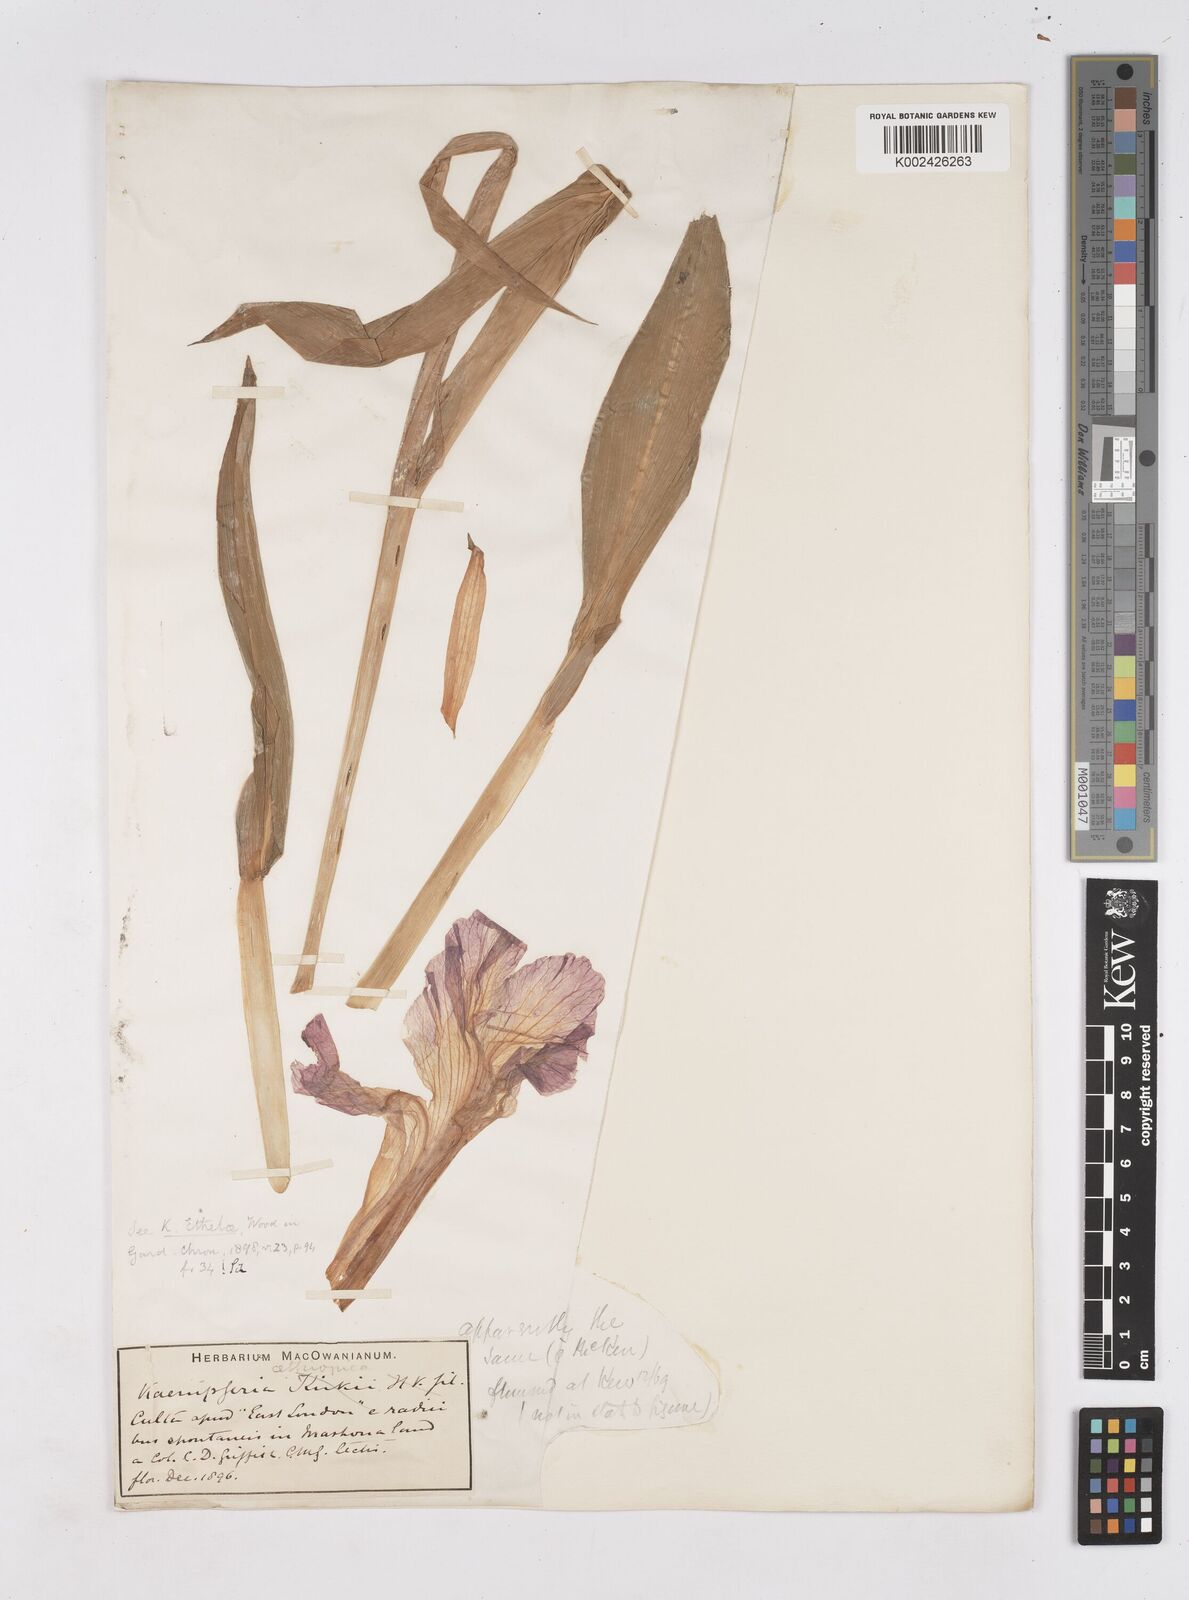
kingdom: Plantae
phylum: Tracheophyta
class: Liliopsida
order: Zingiberales
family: Zingiberaceae
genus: Siphonochilus
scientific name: Siphonochilus
